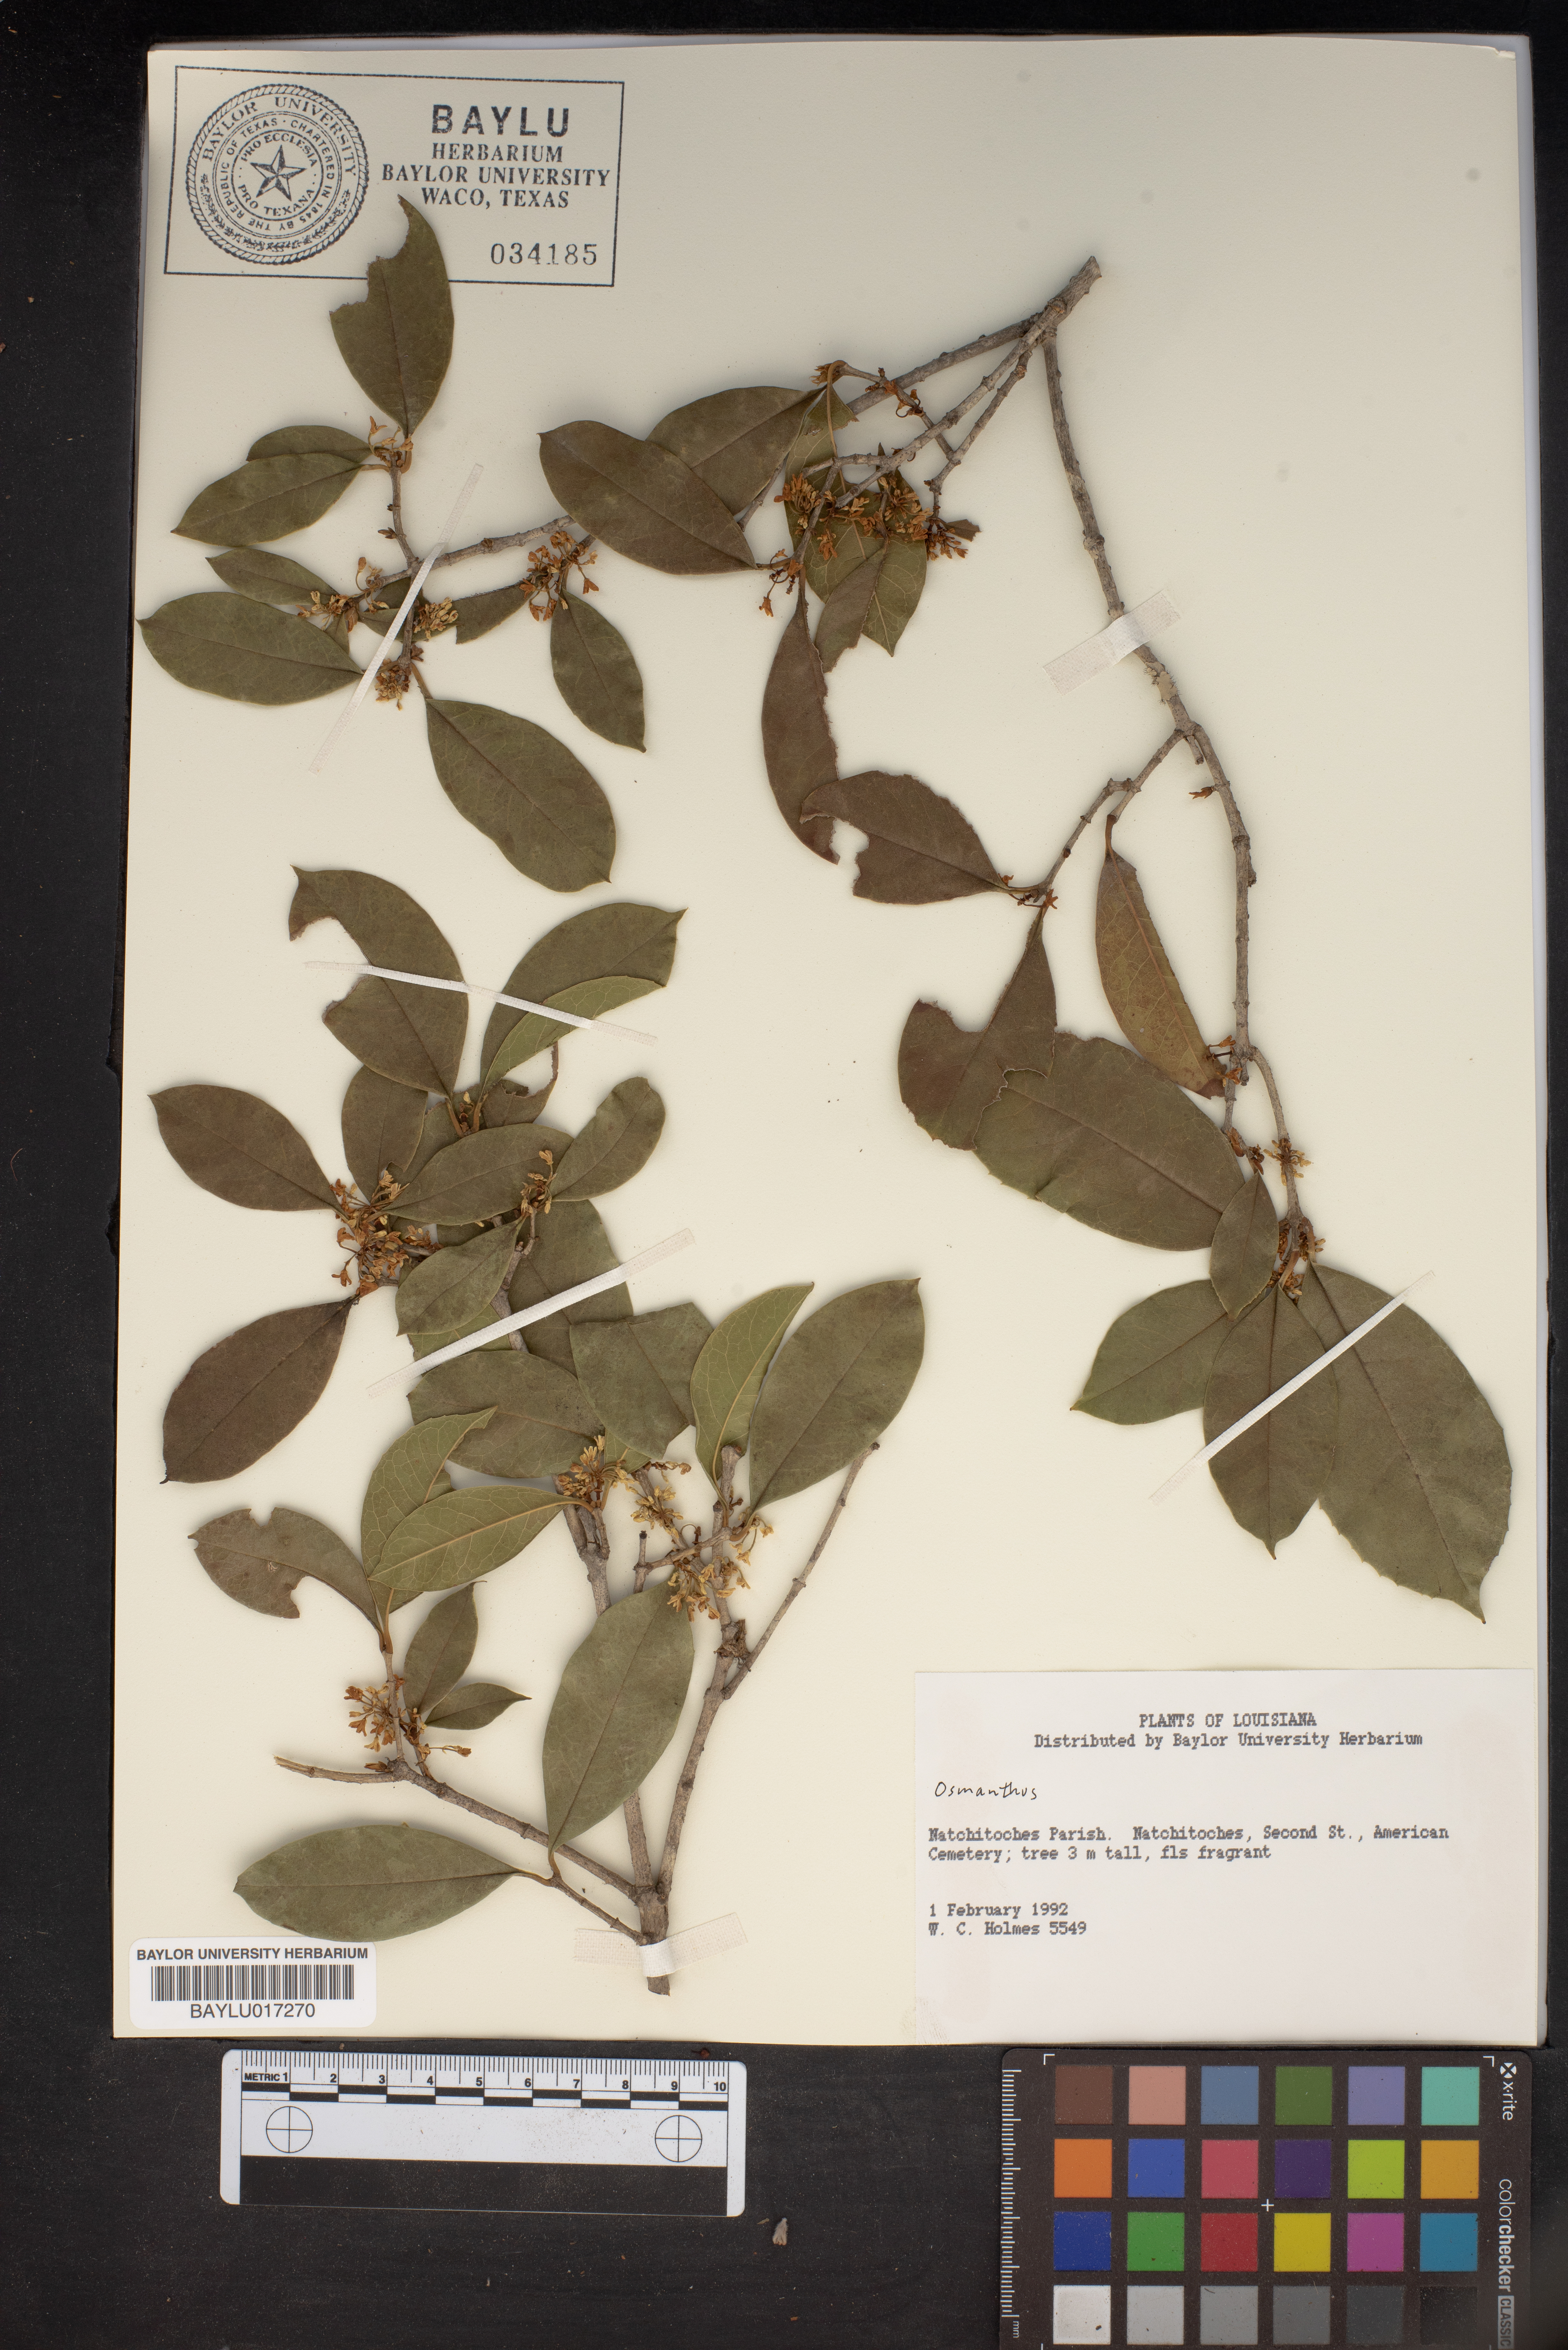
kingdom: Plantae
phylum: Tracheophyta
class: Magnoliopsida
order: Lamiales
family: Oleaceae
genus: Osmanthus
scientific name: Osmanthus
